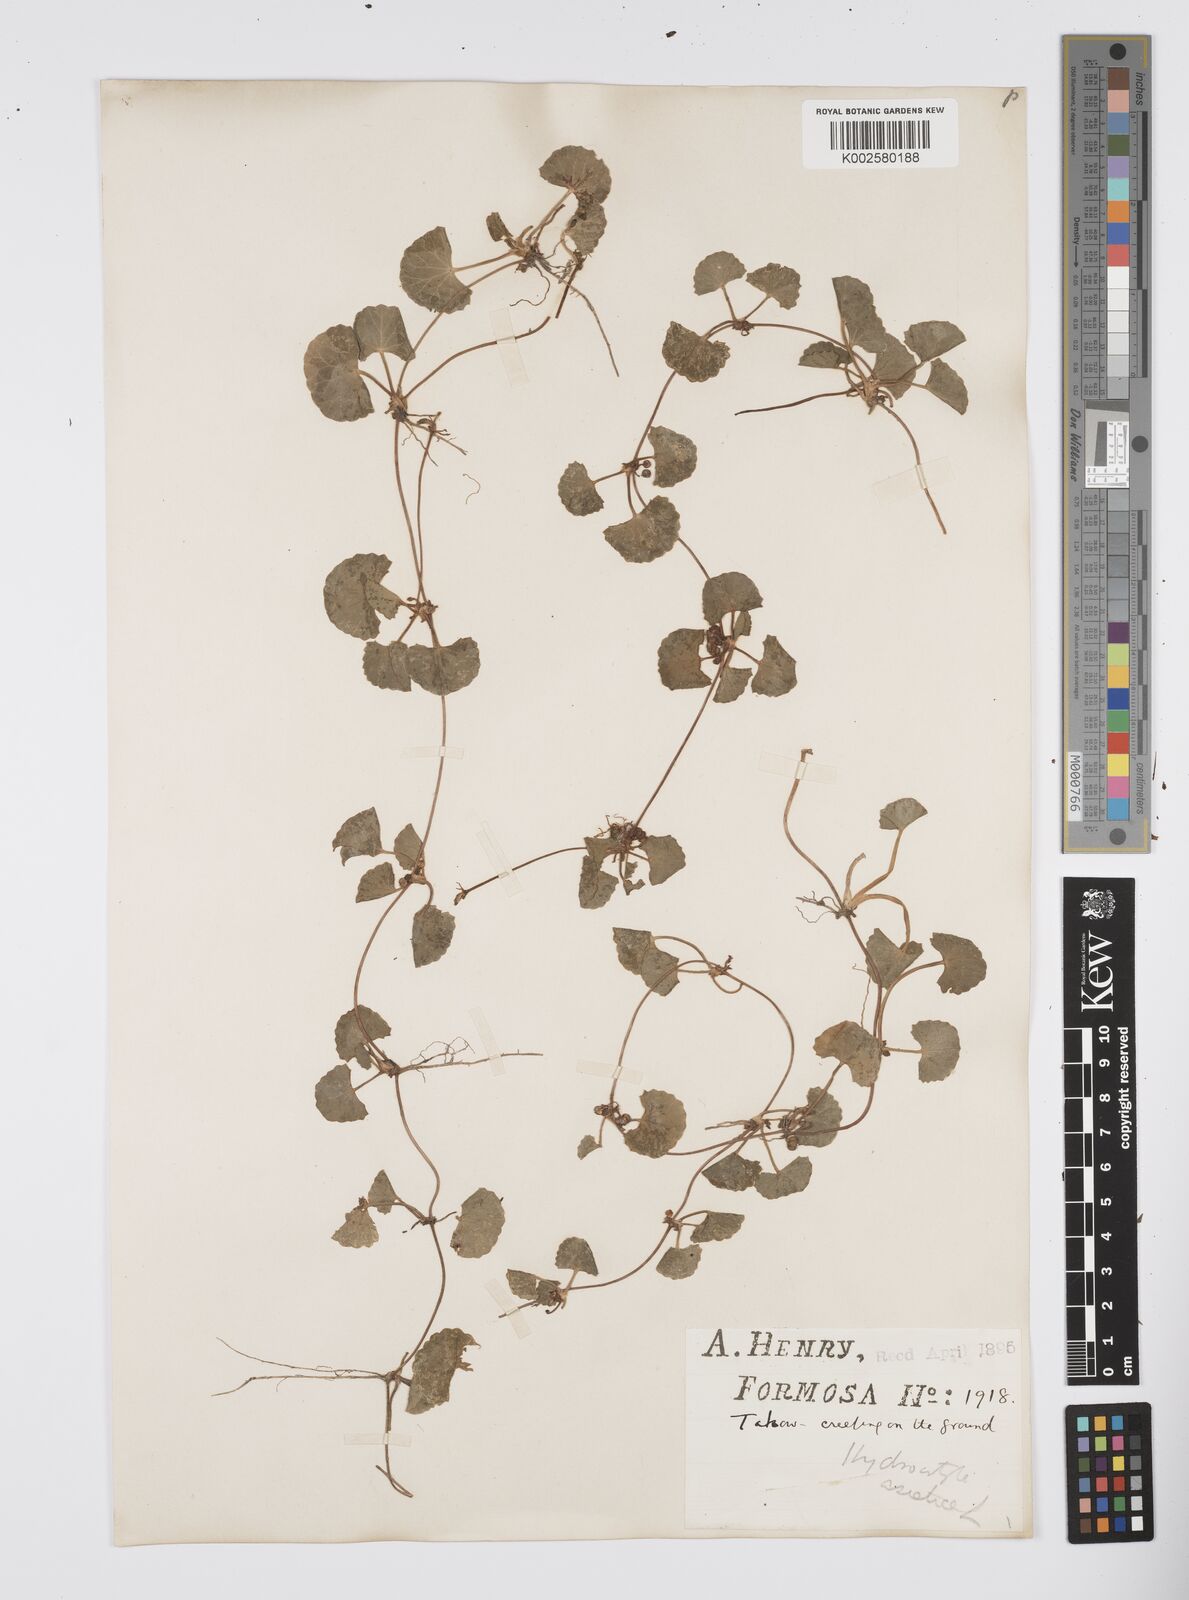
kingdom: Plantae
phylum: Tracheophyta
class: Magnoliopsida
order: Apiales
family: Apiaceae
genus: Centella
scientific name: Centella
